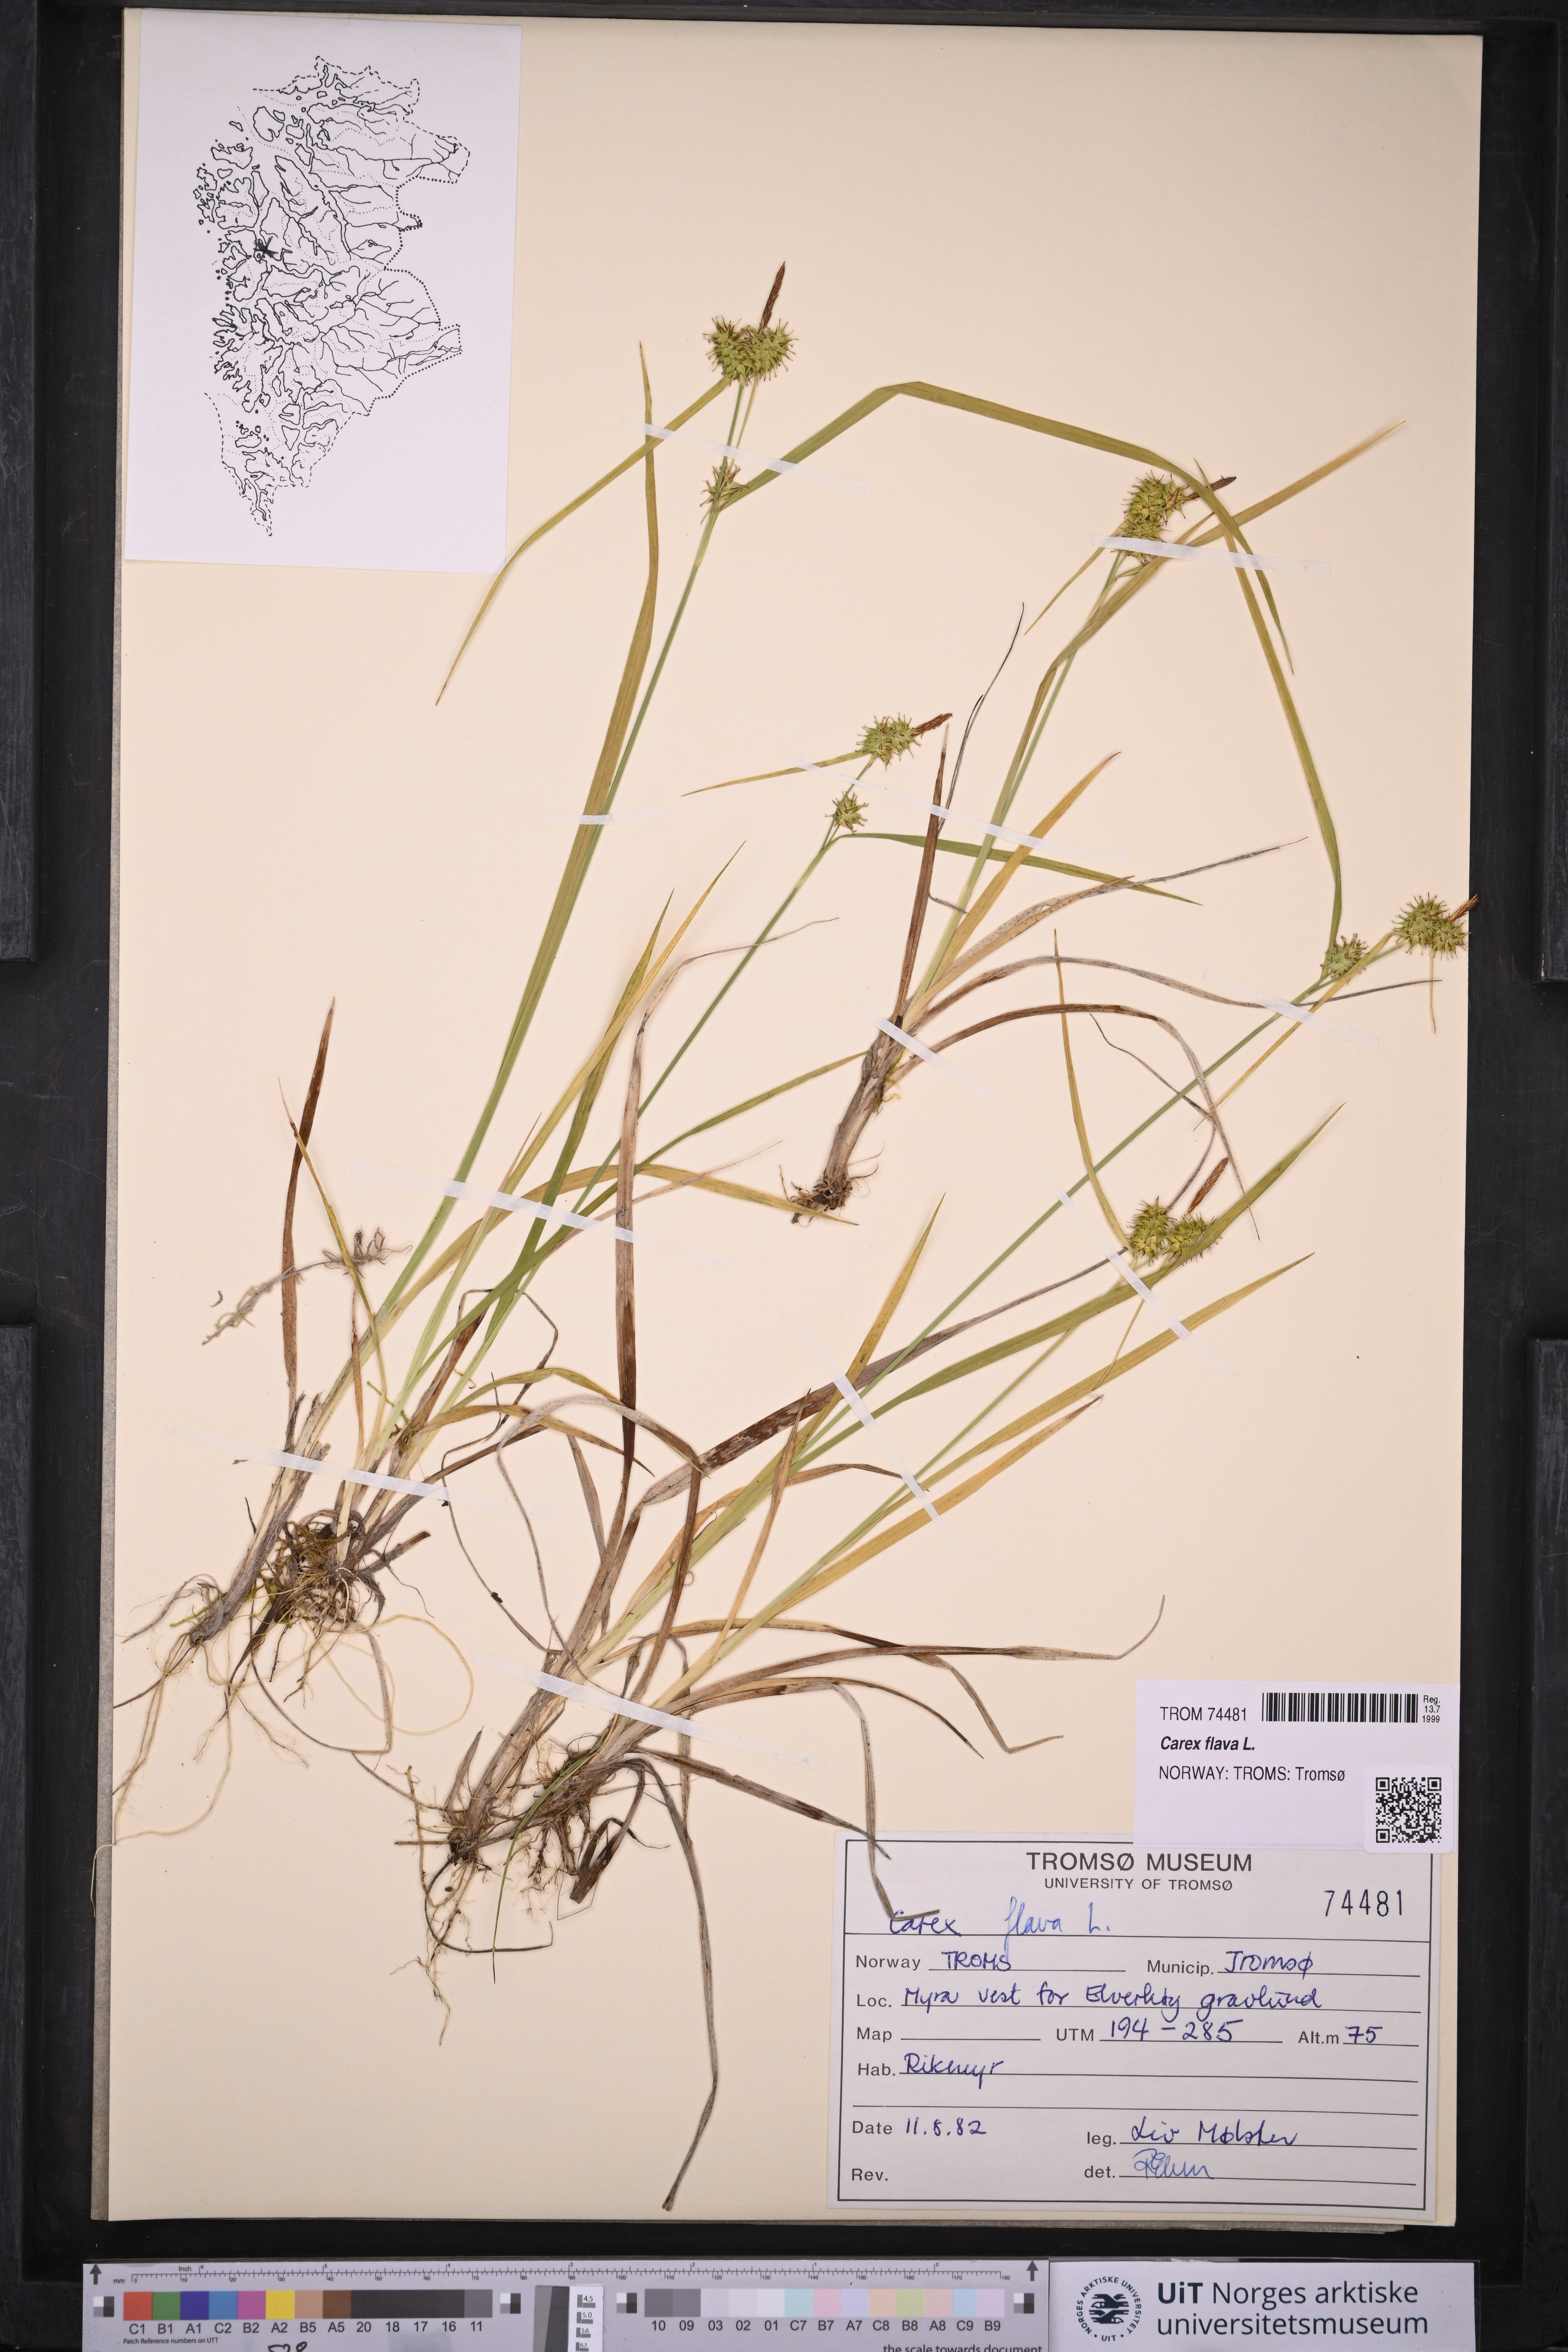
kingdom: Plantae
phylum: Tracheophyta
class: Liliopsida
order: Poales
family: Cyperaceae
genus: Carex
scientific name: Carex flava
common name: Large yellow-sedge
